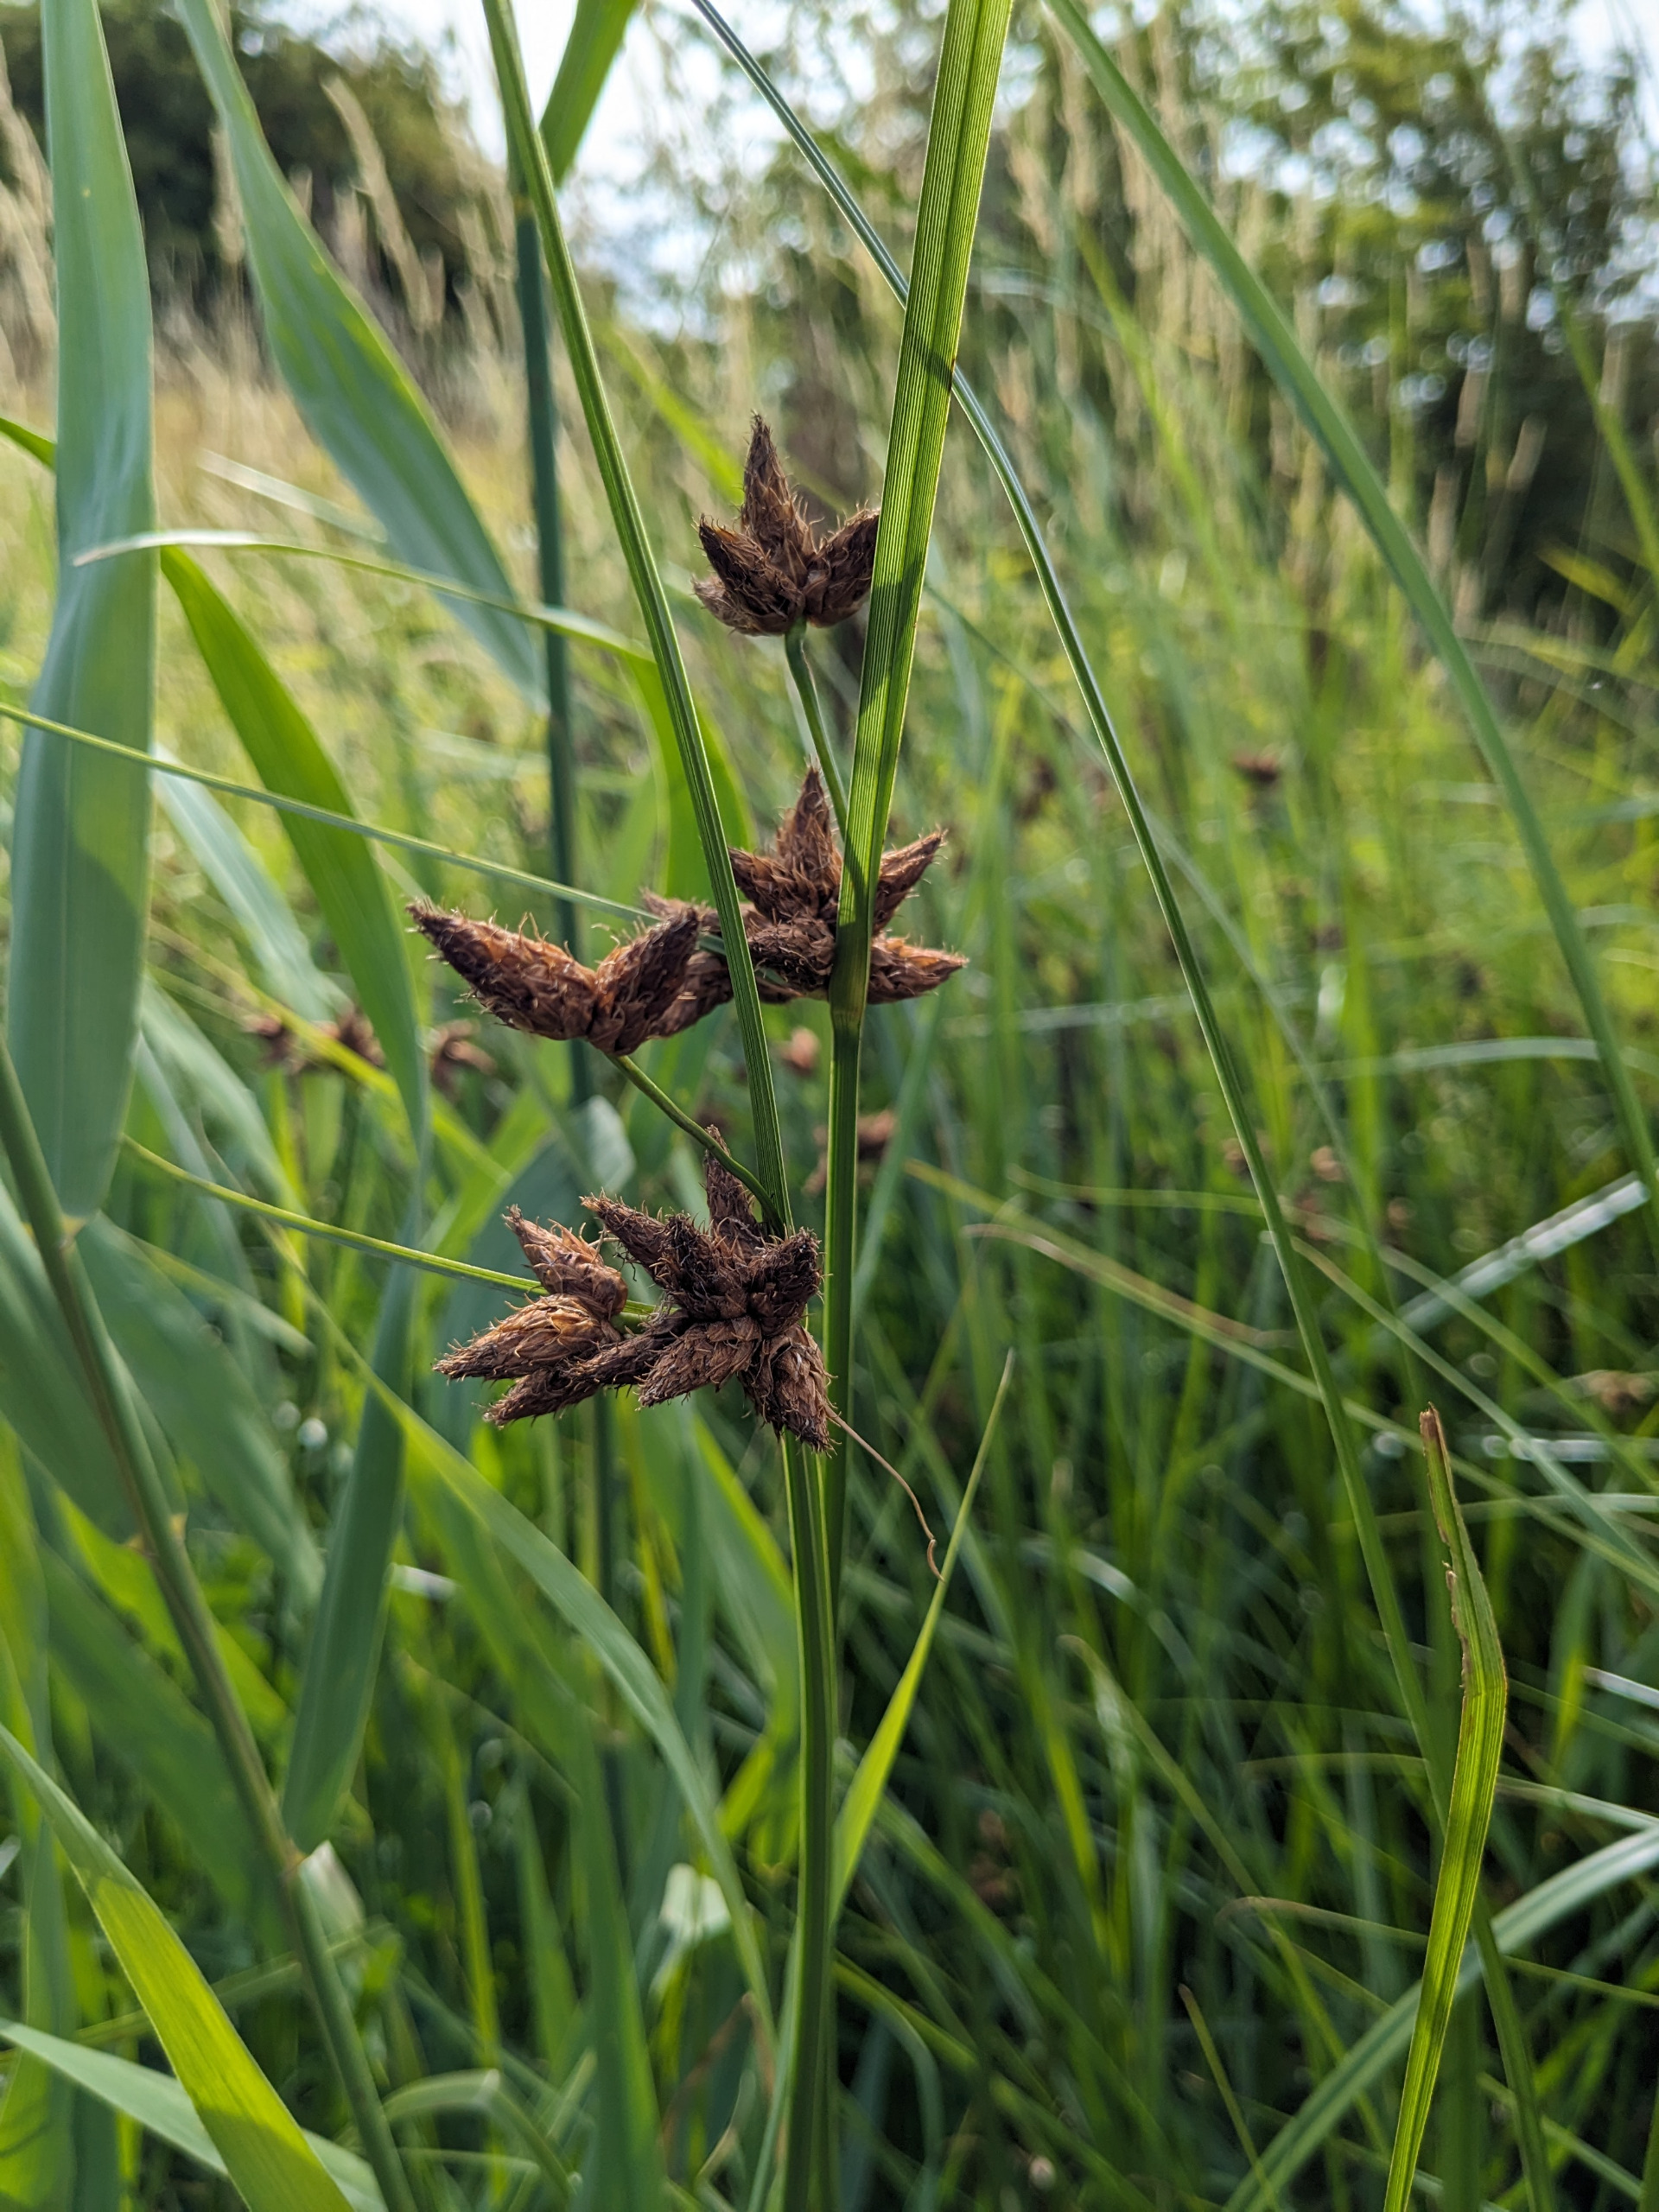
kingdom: Plantae
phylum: Tracheophyta
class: Liliopsida
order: Poales
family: Cyperaceae
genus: Bolboschoenus
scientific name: Bolboschoenus maritimus
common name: Strand-kogleaks
